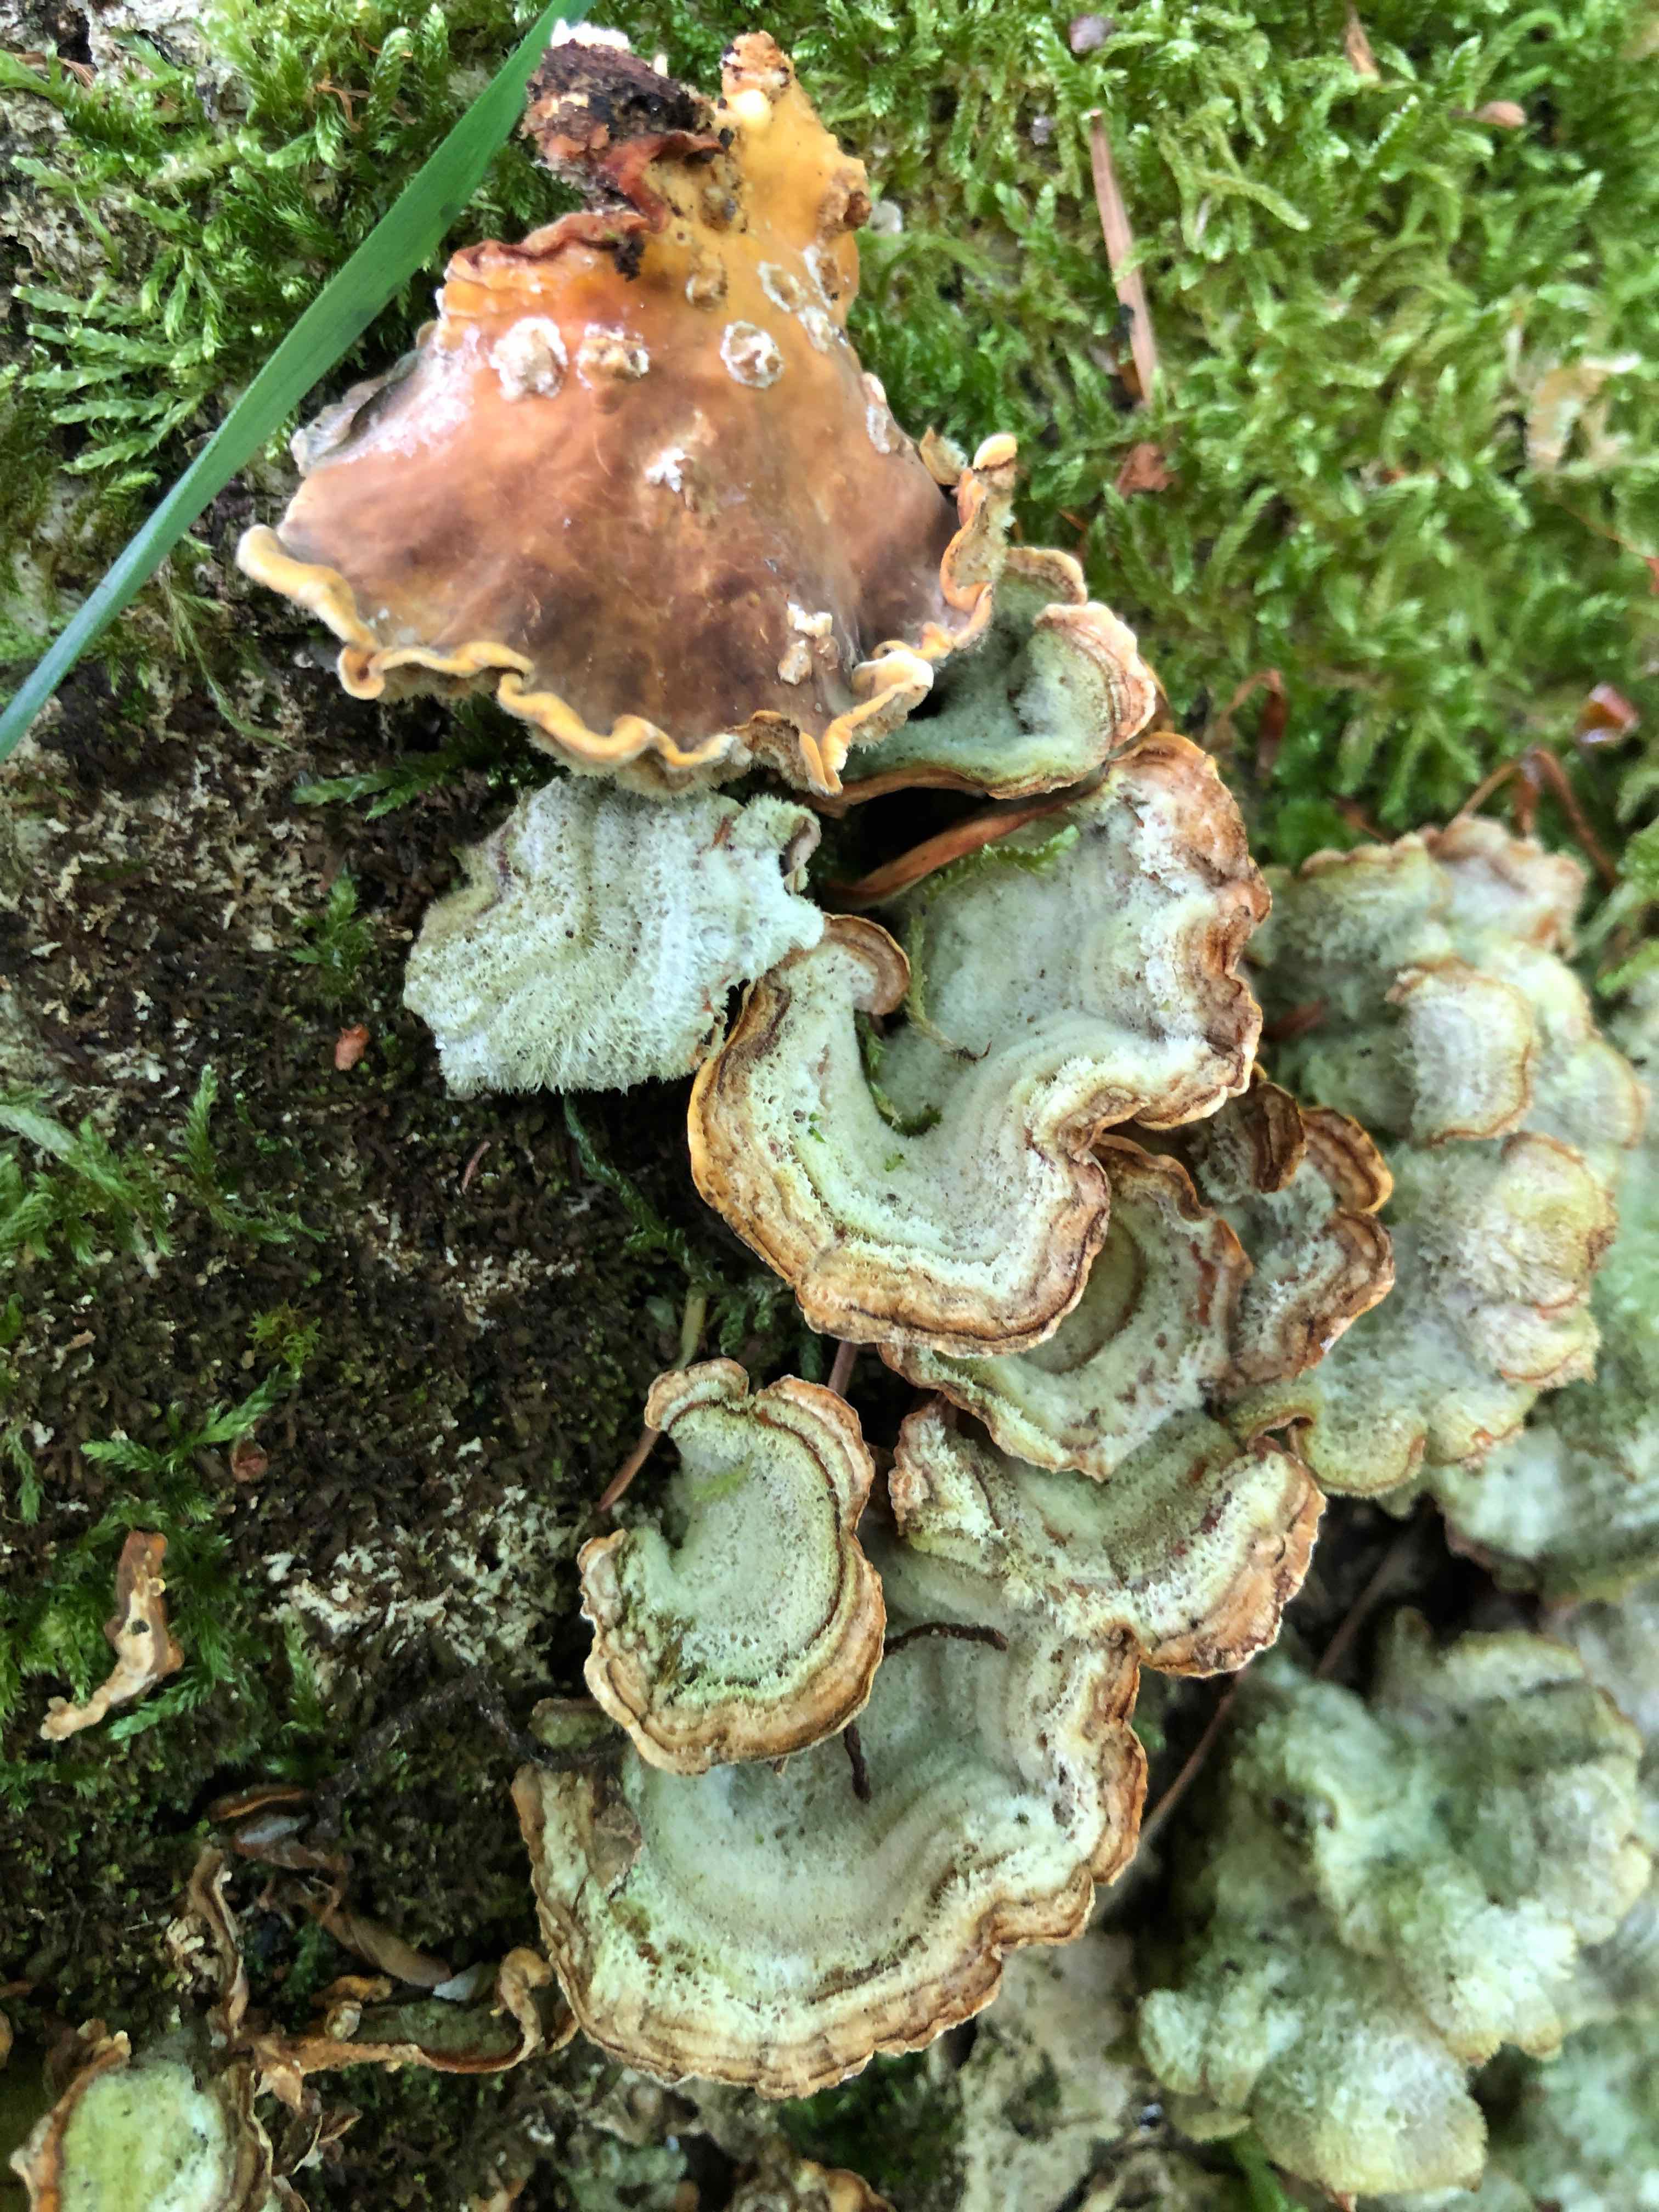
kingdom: Fungi
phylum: Basidiomycota
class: Agaricomycetes
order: Russulales
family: Stereaceae
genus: Stereum
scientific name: Stereum hirsutum
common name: håret lædersvamp
